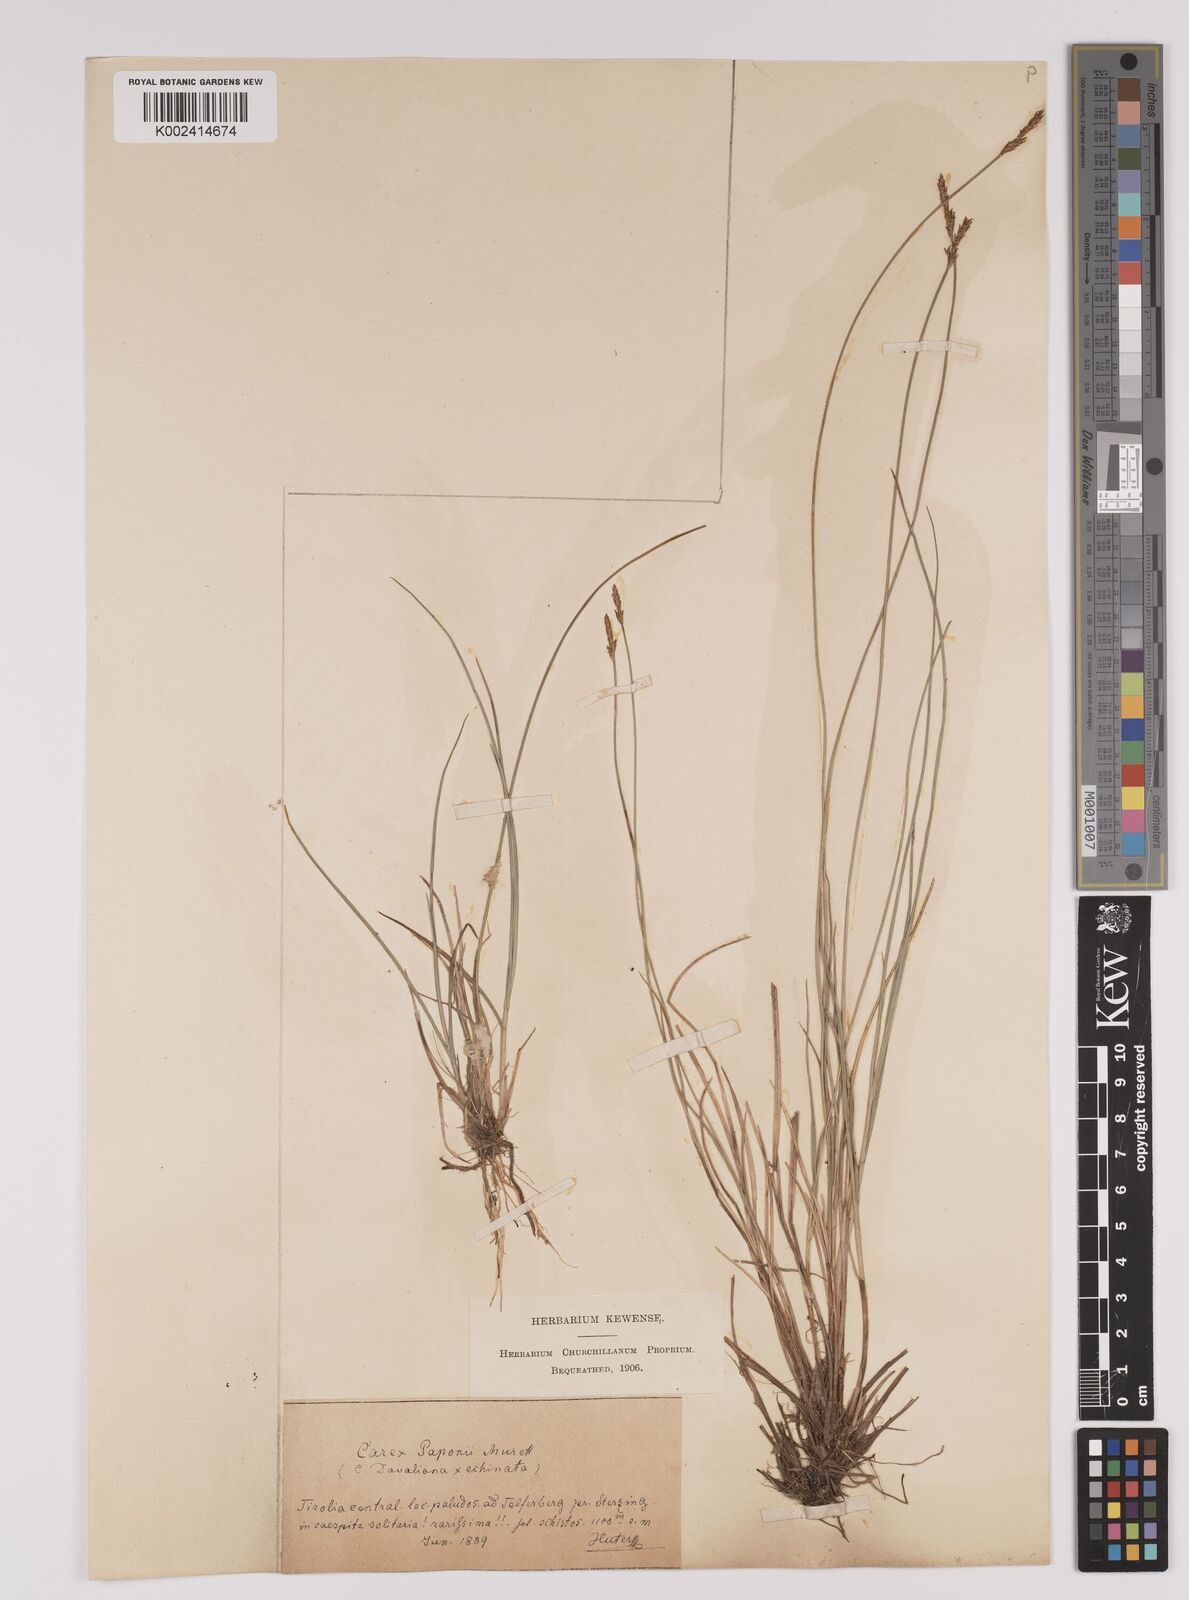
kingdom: Plantae
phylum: Tracheophyta
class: Liliopsida
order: Poales
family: Cyperaceae
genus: Carex
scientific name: Carex davalliana
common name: Davall's sedge
